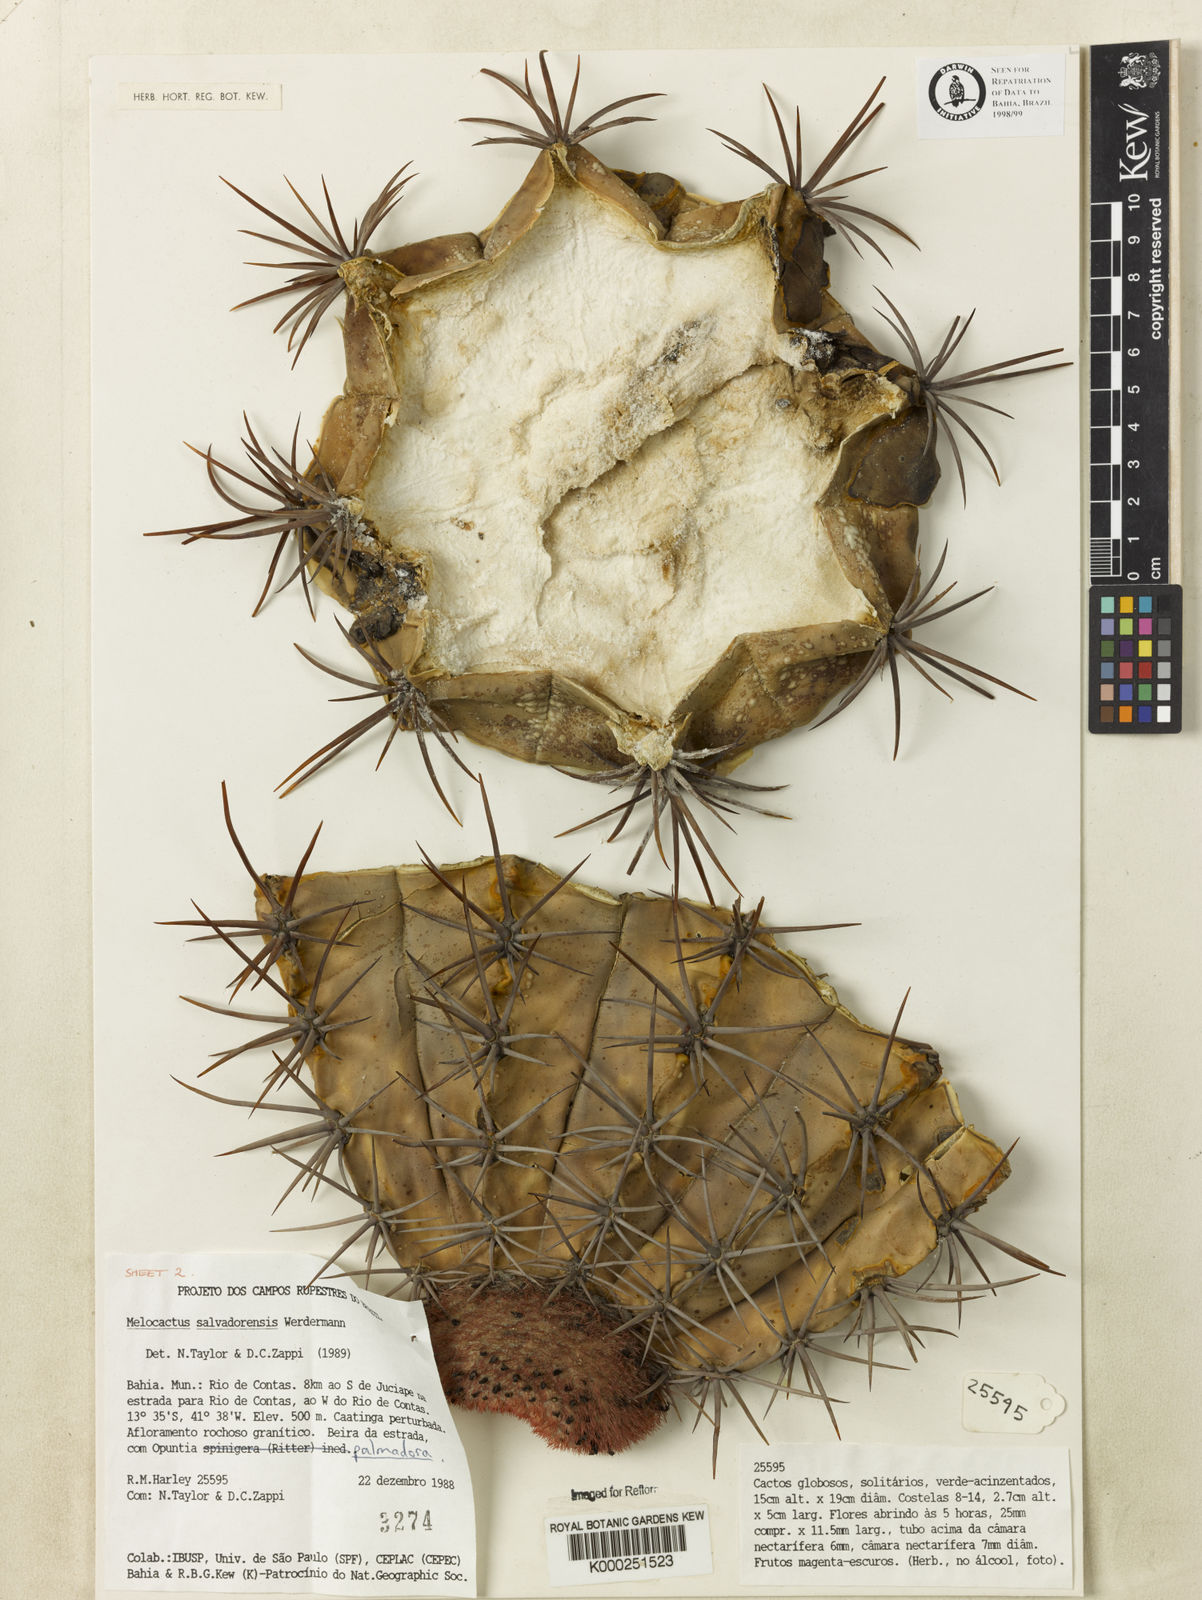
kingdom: Plantae
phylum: Tracheophyta
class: Magnoliopsida
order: Caryophyllales
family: Cactaceae
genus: Melocactus
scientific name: Melocactus salvadorensis
